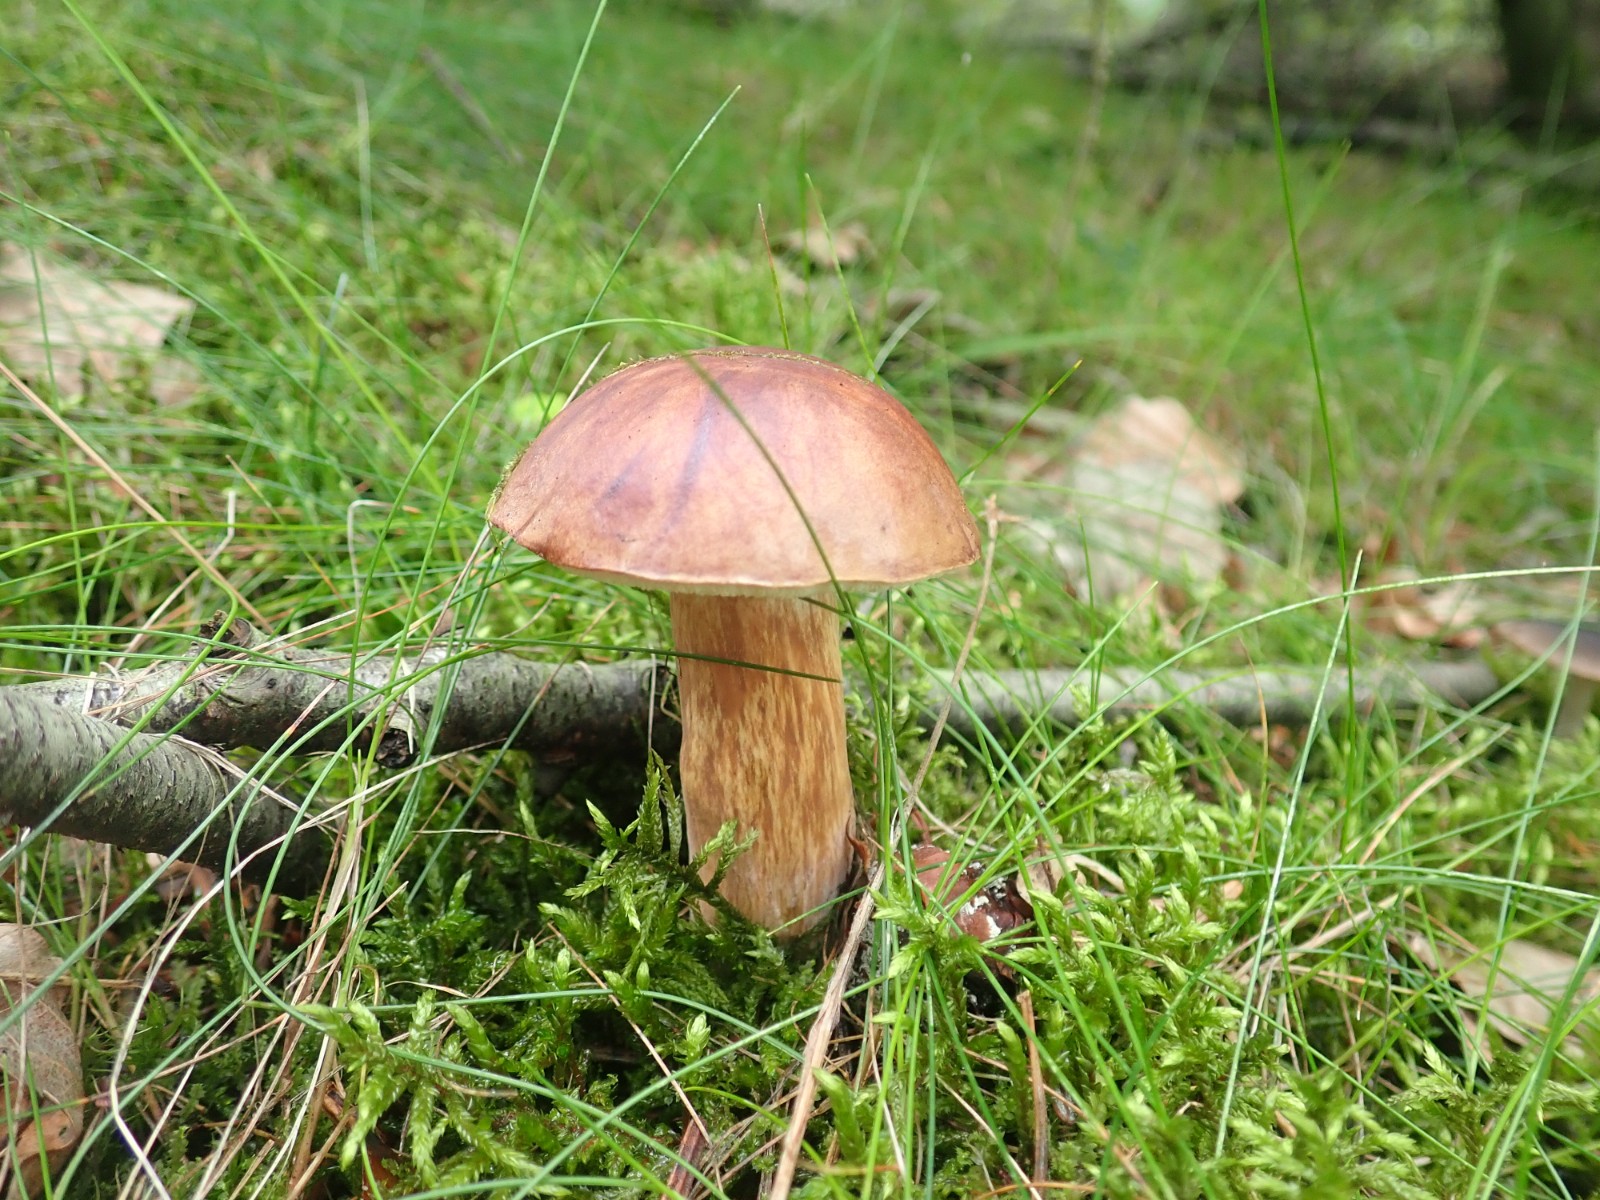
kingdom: Fungi
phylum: Basidiomycota
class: Agaricomycetes
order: Boletales
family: Boletaceae
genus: Imleria
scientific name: Imleria badia
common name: brunstokket rørhat
